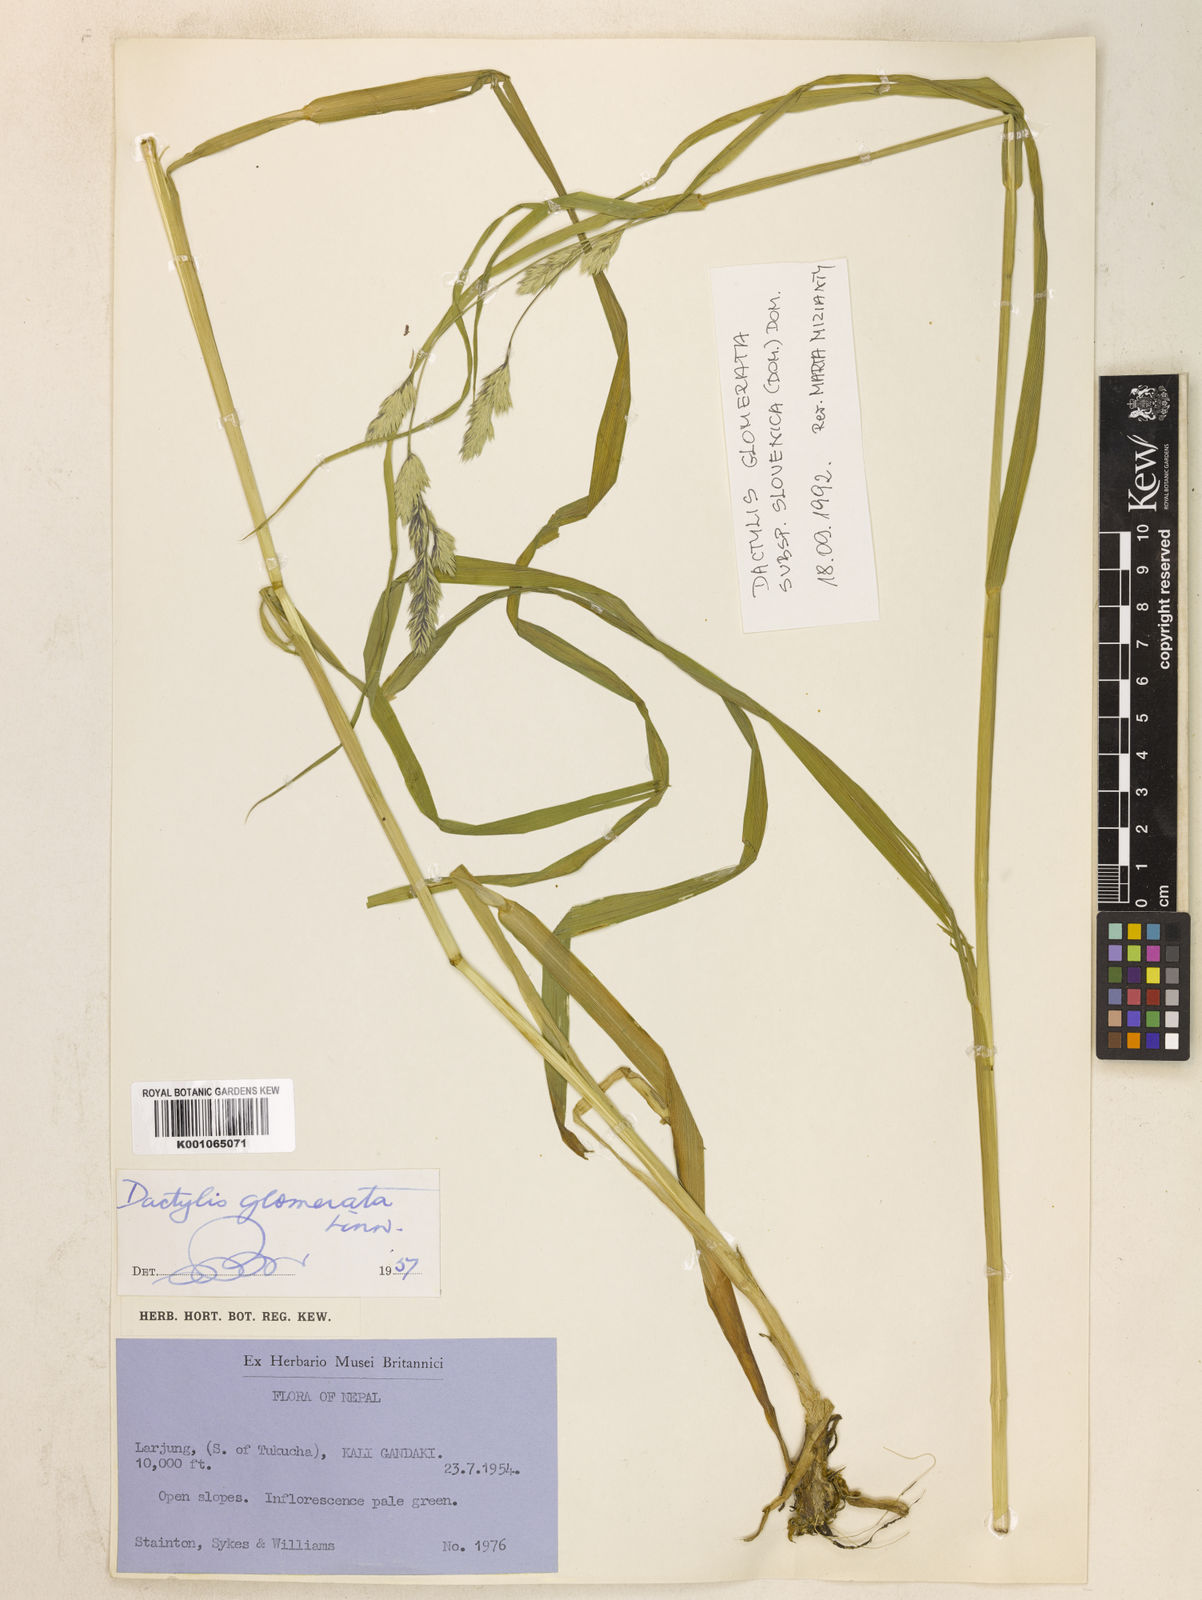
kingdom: Plantae
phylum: Tracheophyta
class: Liliopsida
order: Poales
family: Poaceae
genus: Dactylis
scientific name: Dactylis glomerata
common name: Orchardgrass
